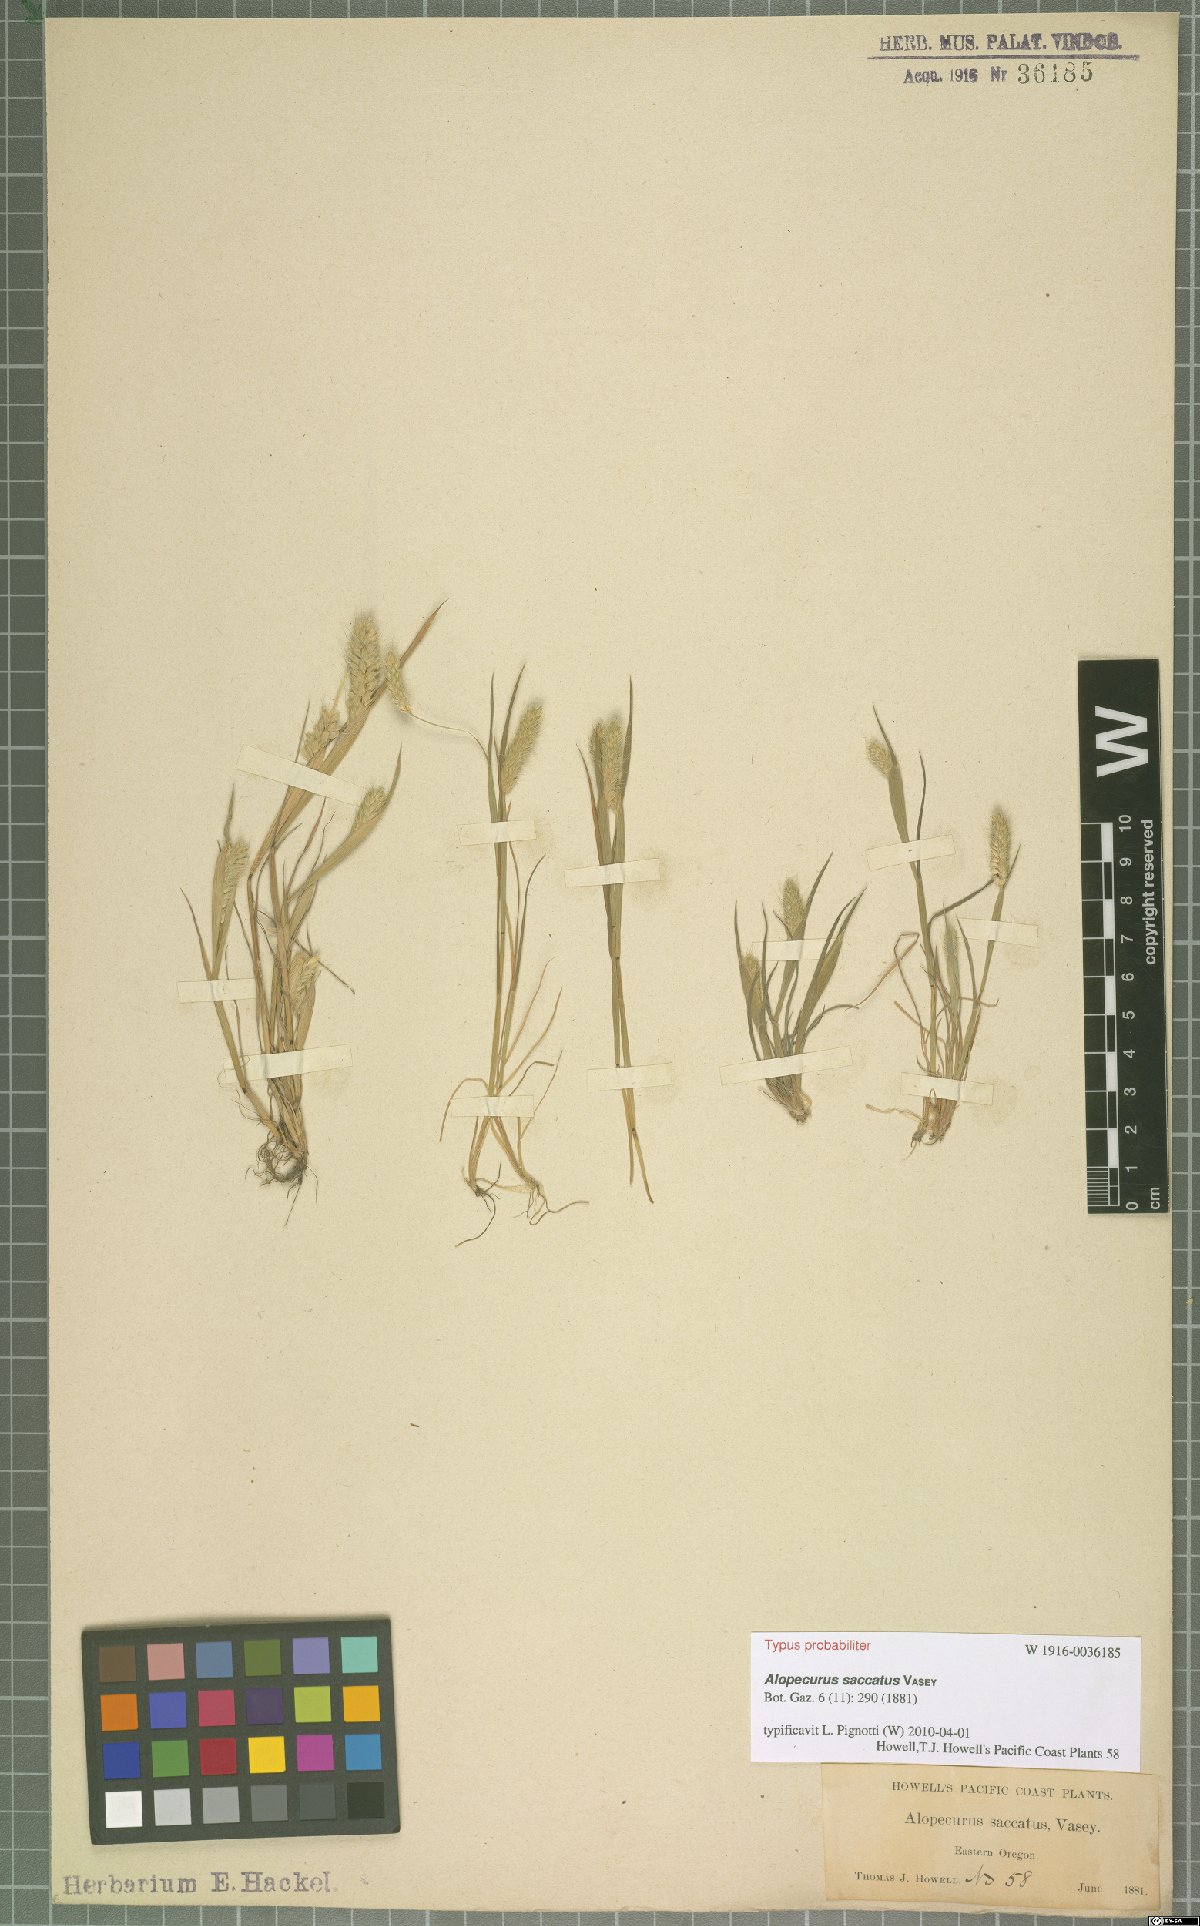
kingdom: Plantae
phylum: Tracheophyta
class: Liliopsida
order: Poales
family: Poaceae
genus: Alopecurus
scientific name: Alopecurus saccatus
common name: Pacific foxtail
